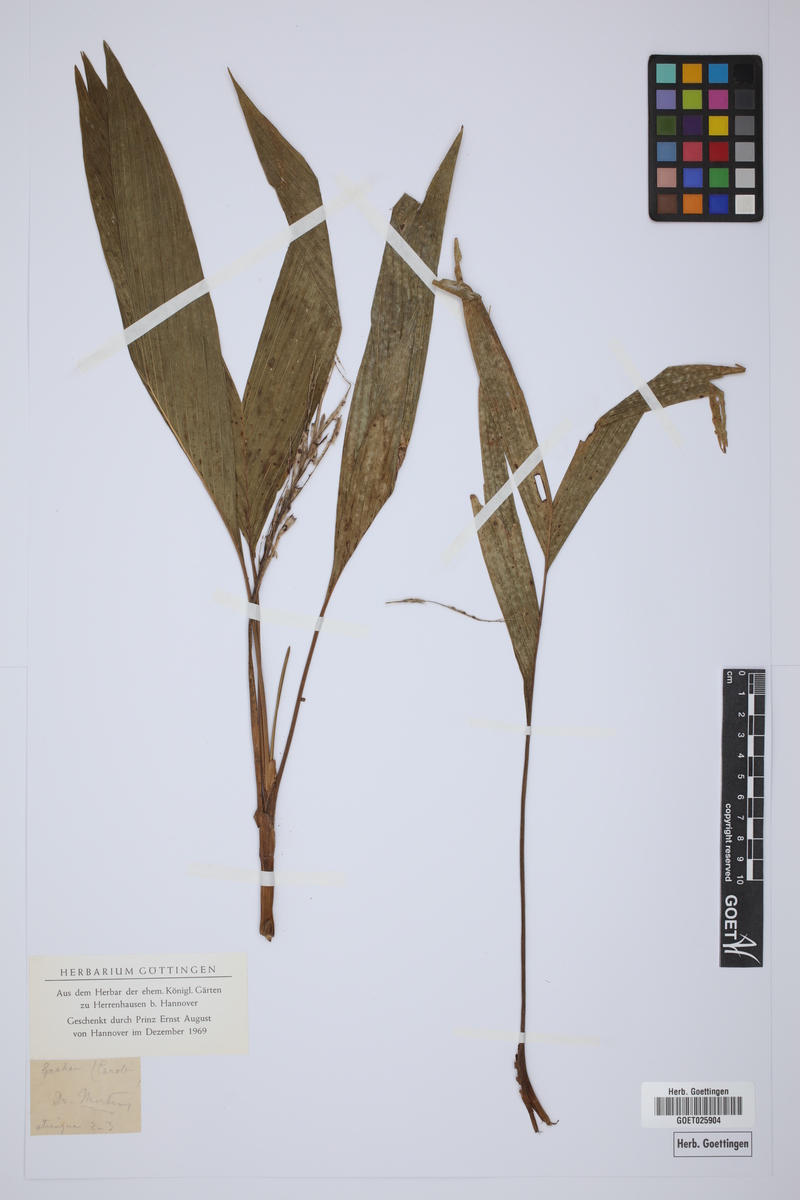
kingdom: Plantae
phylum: Tracheophyta
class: Liliopsida
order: Arecales
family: Arecaceae
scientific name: Arecaceae
